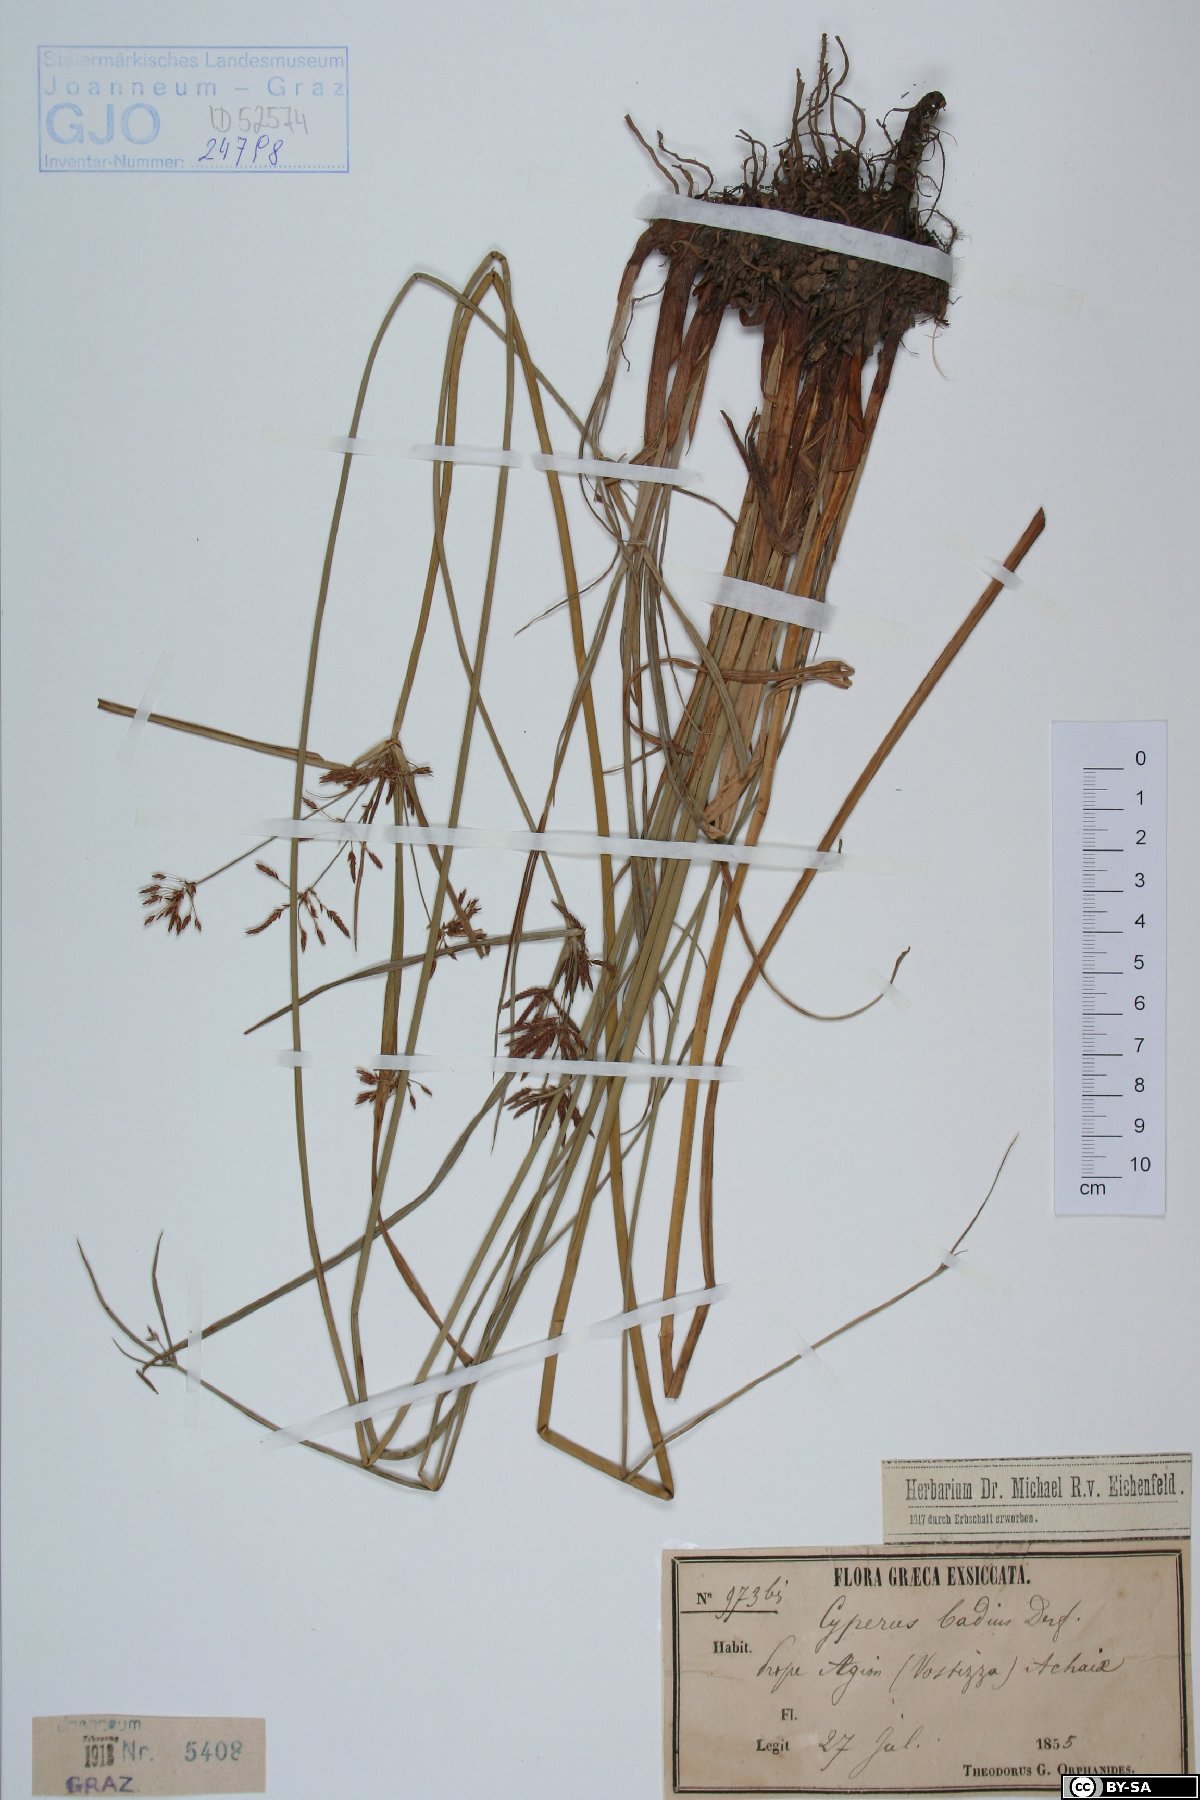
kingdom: Plantae
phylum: Tracheophyta
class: Liliopsida
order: Poales
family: Cyperaceae
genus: Cyperus
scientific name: Cyperus longus
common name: Galingale
